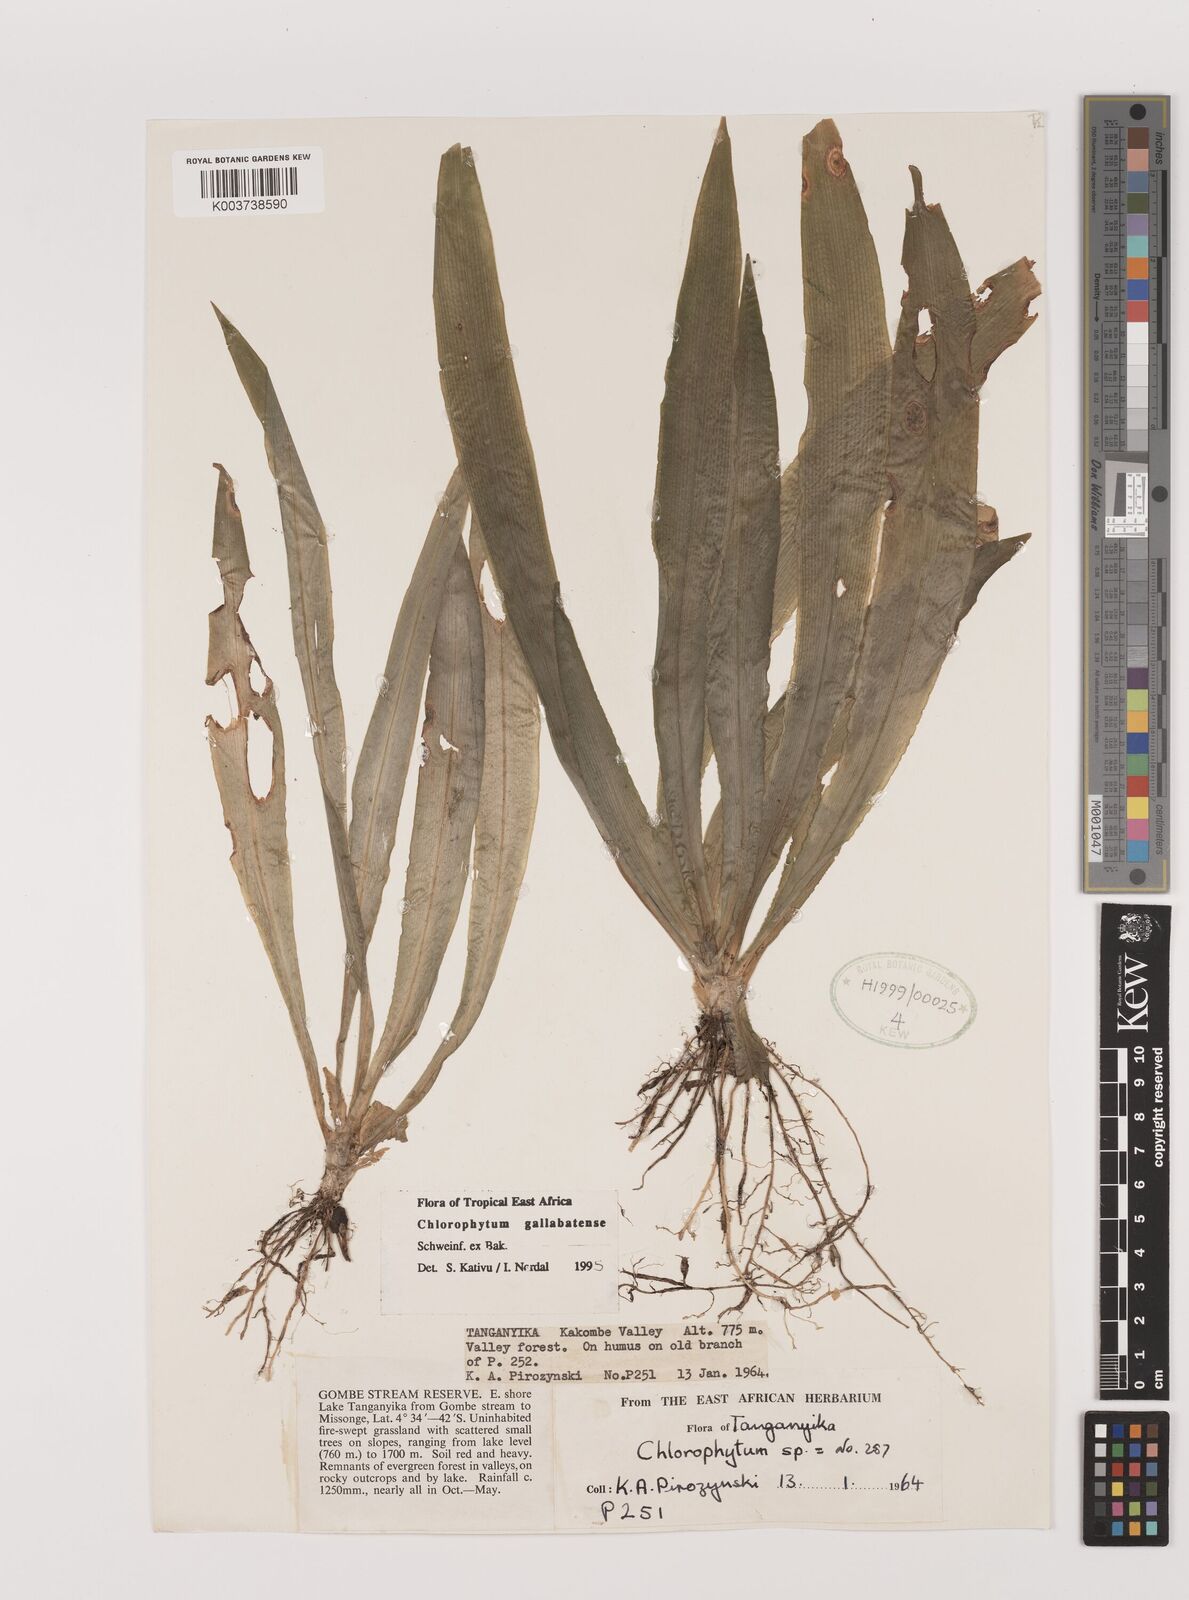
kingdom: Plantae
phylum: Tracheophyta
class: Liliopsida
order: Asparagales
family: Asparagaceae
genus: Chlorophytum
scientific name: Chlorophytum gallabatense
